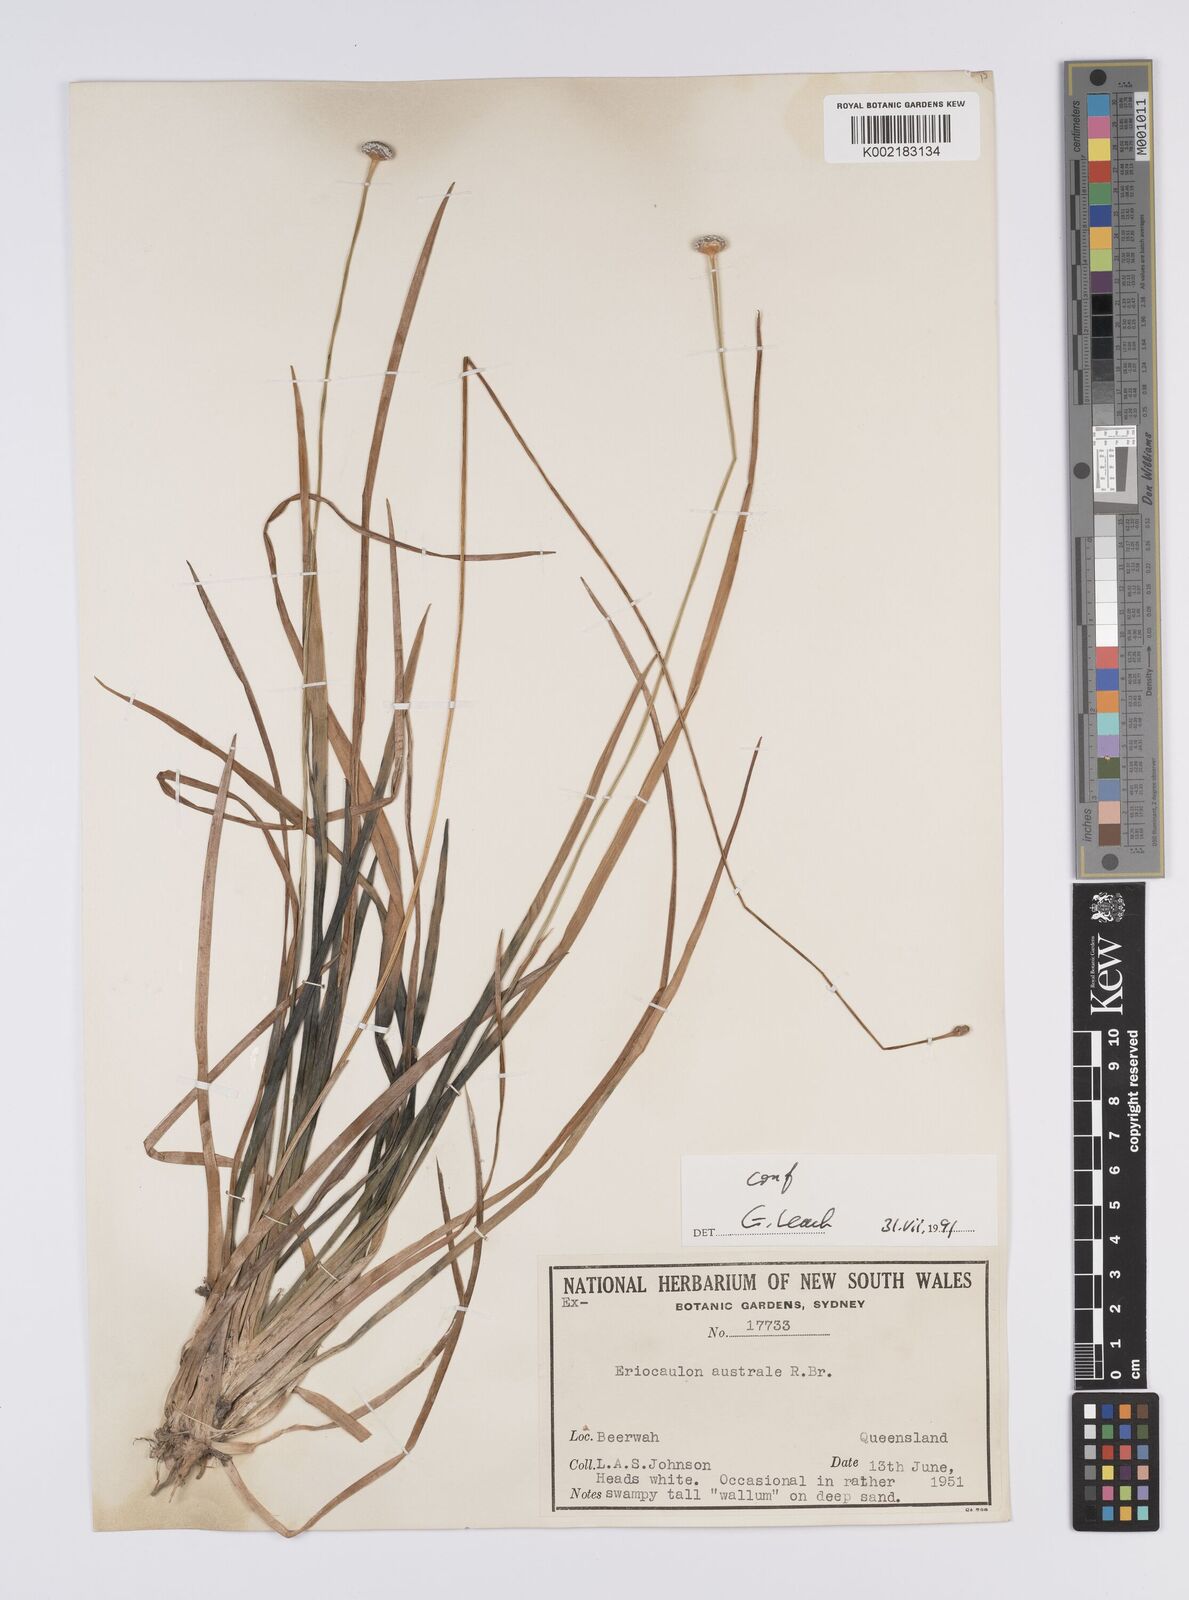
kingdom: Plantae
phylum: Tracheophyta
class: Liliopsida
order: Poales
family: Eriocaulaceae
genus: Eriocaulon
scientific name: Eriocaulon australe
